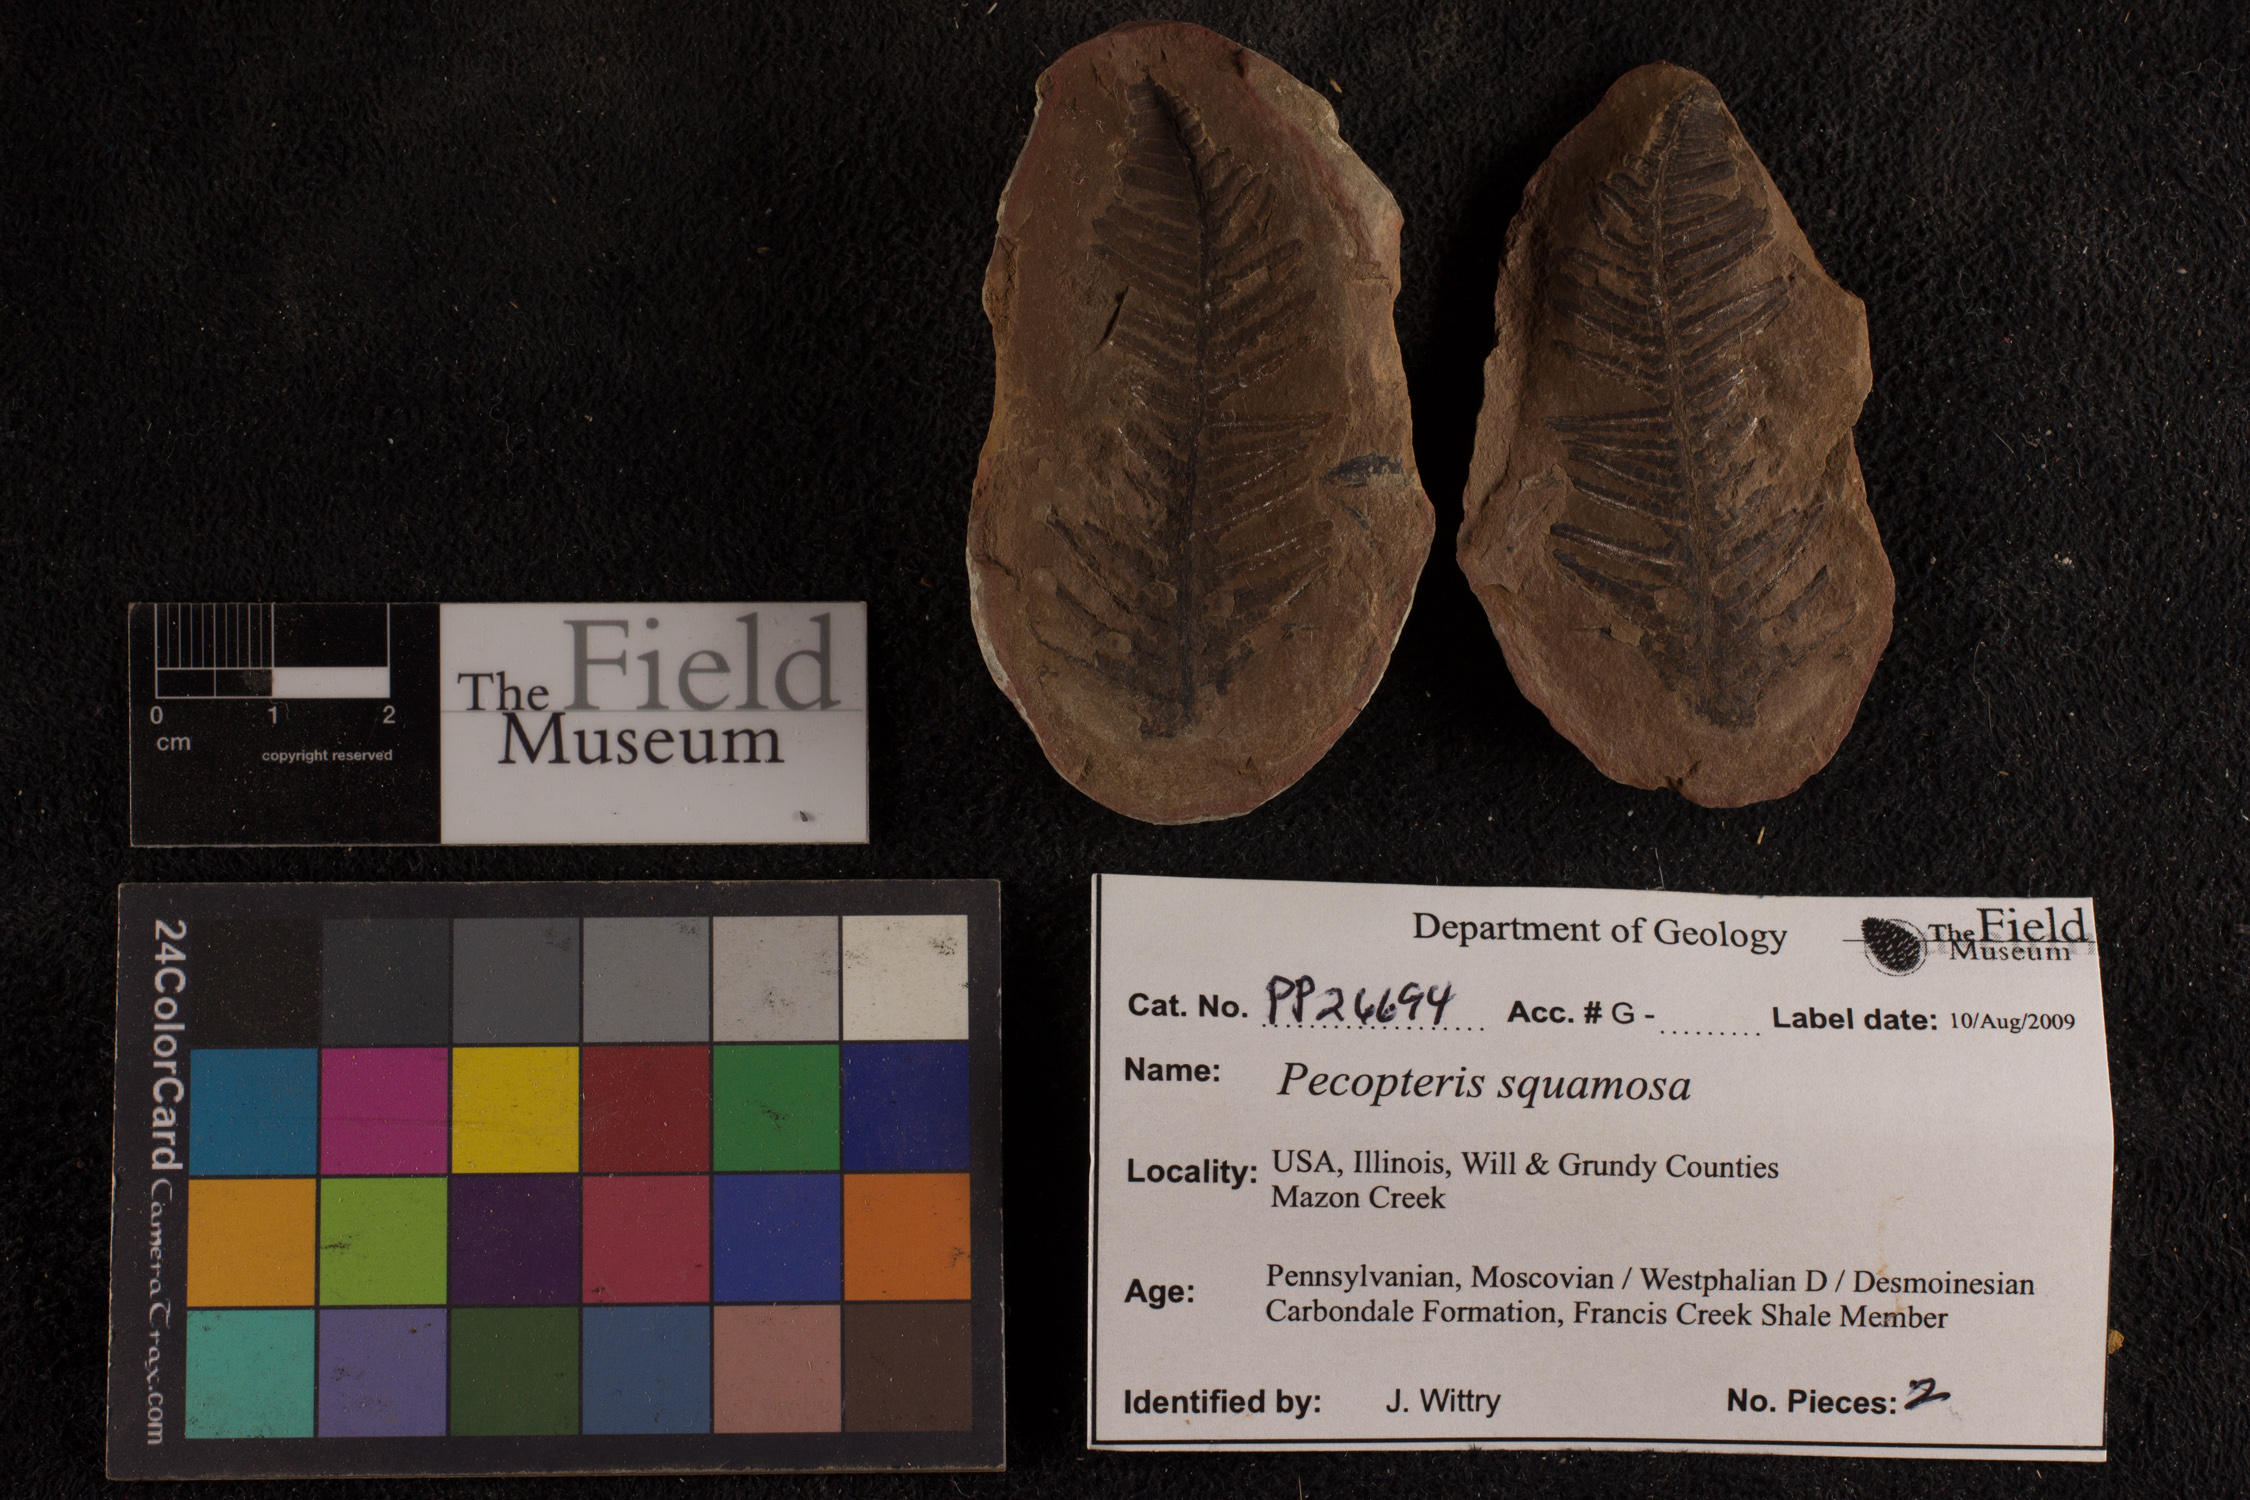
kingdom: Plantae
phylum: Tracheophyta
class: Polypodiopsida
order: Marattiales
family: Asterothecaceae
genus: Pecopteris
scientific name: Pecopteris
